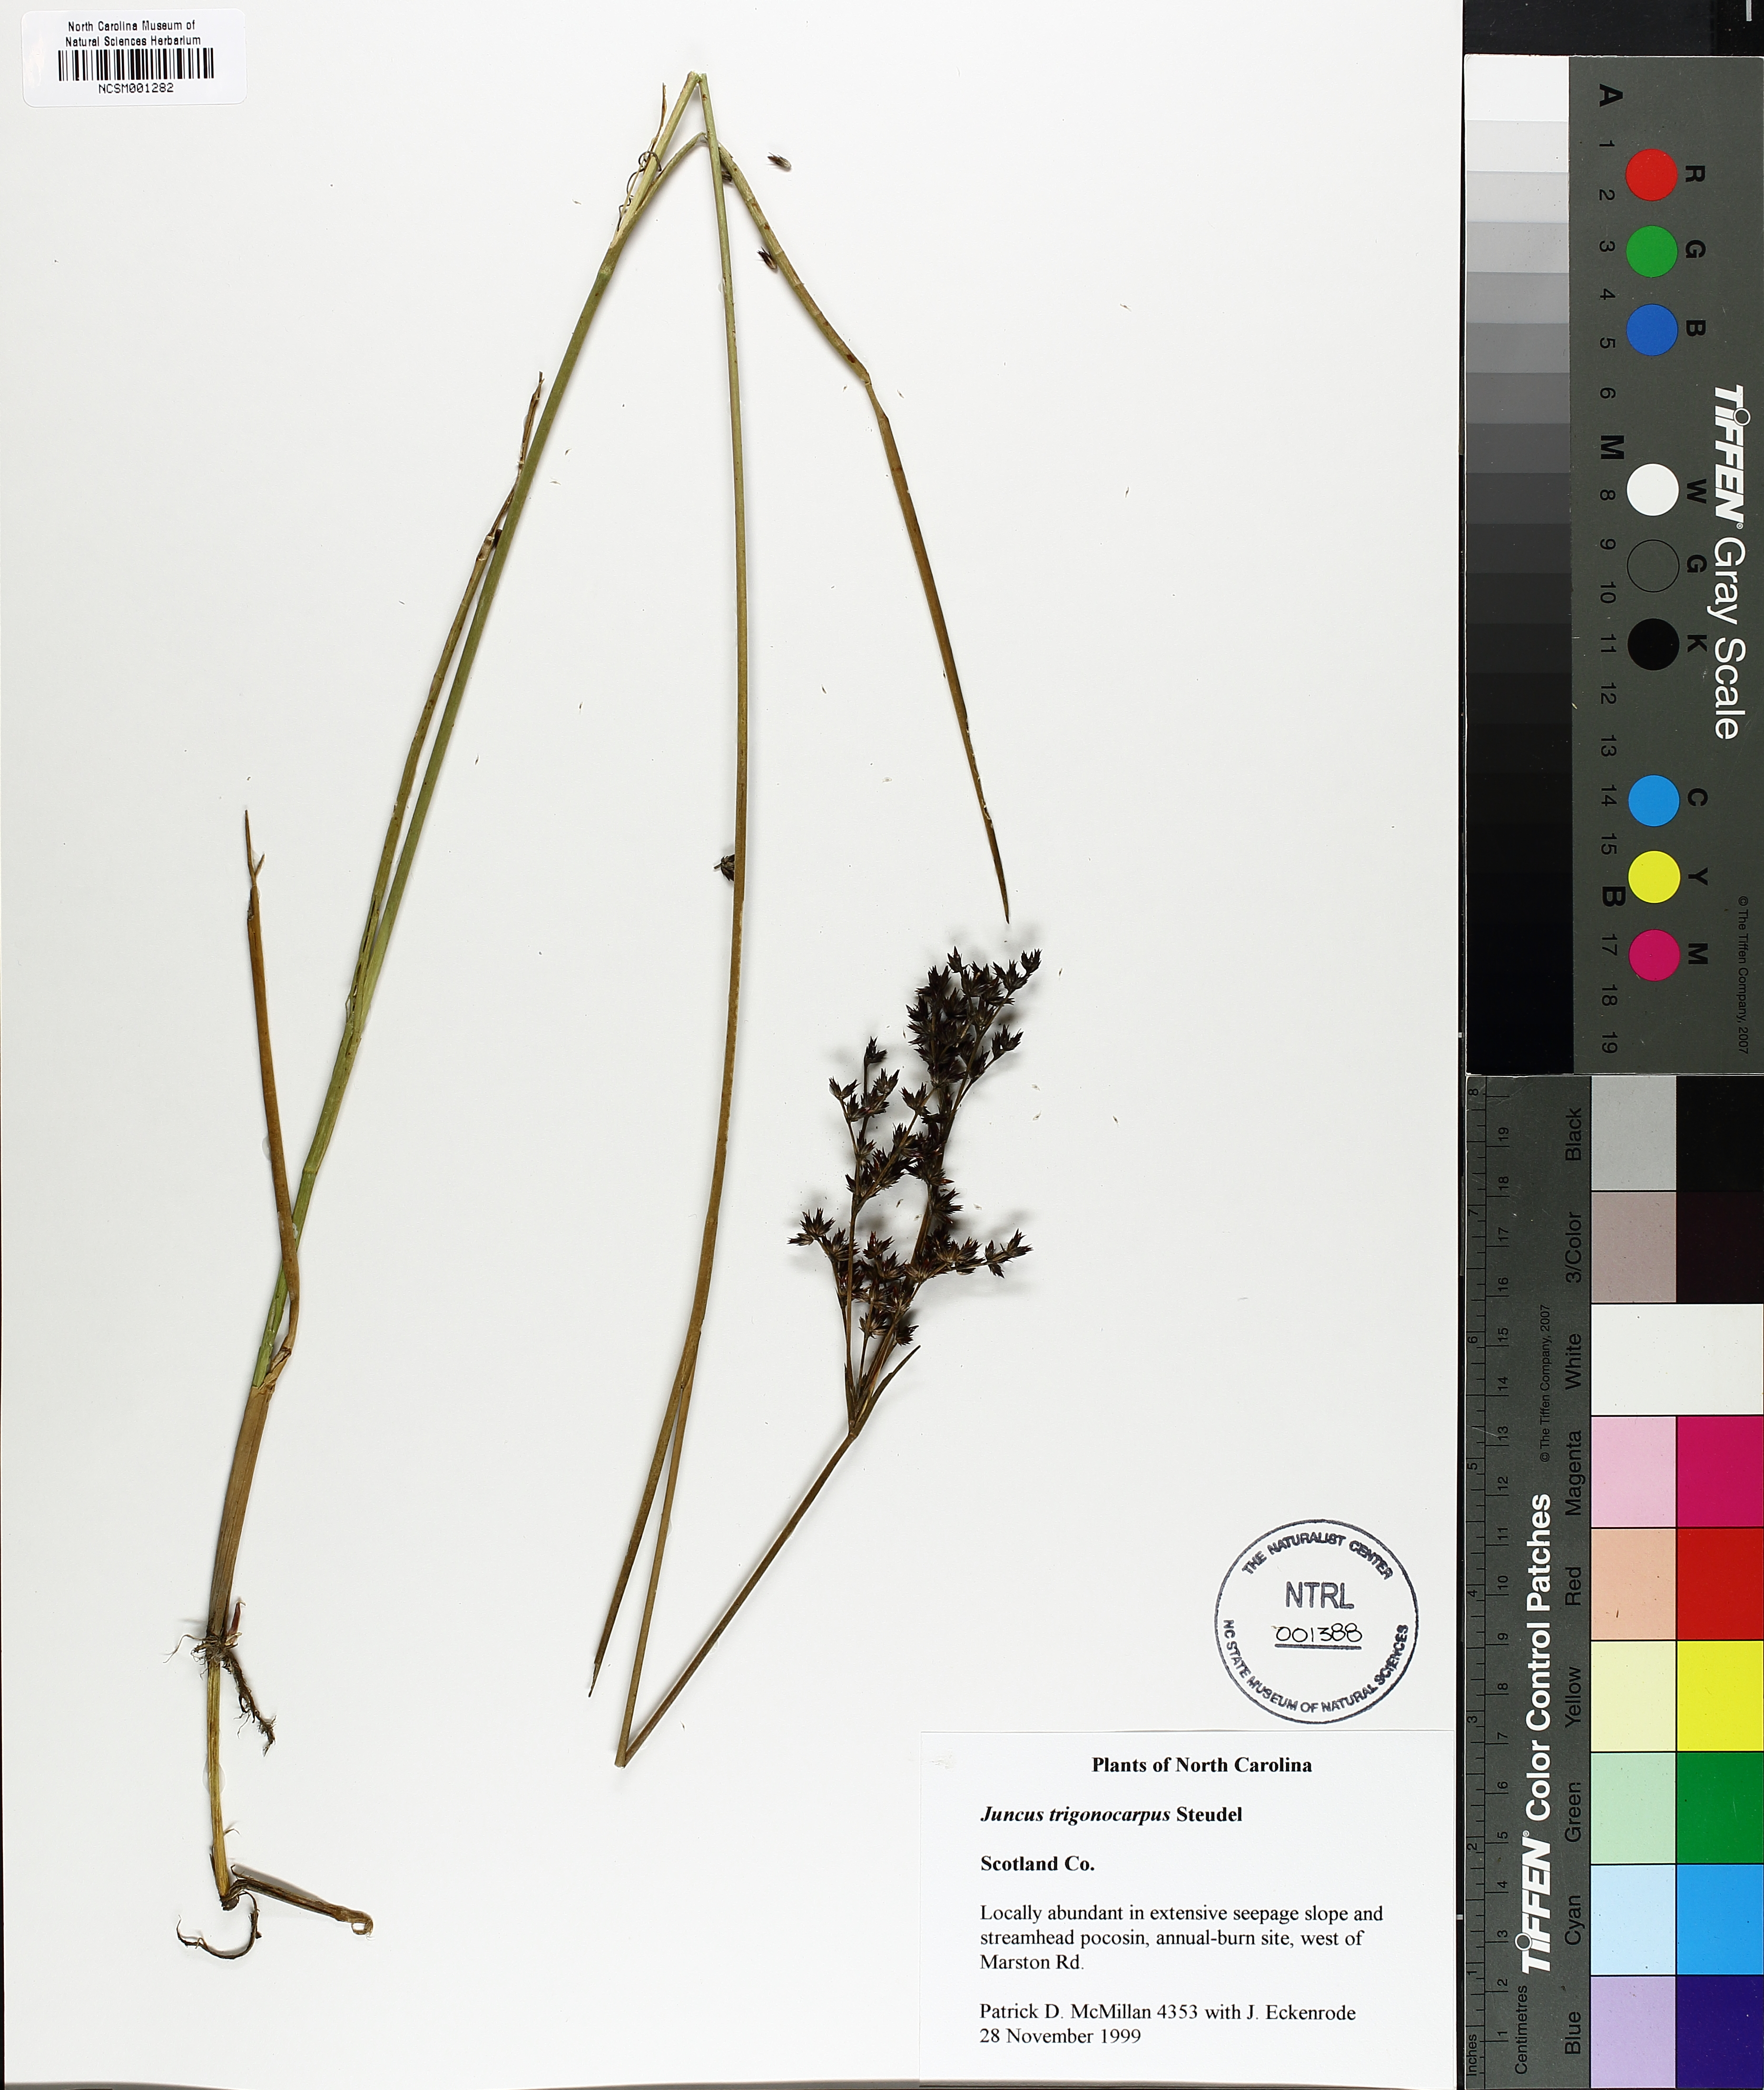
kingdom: Plantae
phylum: Tracheophyta
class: Liliopsida
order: Poales
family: Juncaceae
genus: Juncus
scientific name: Juncus trigonocarpus
